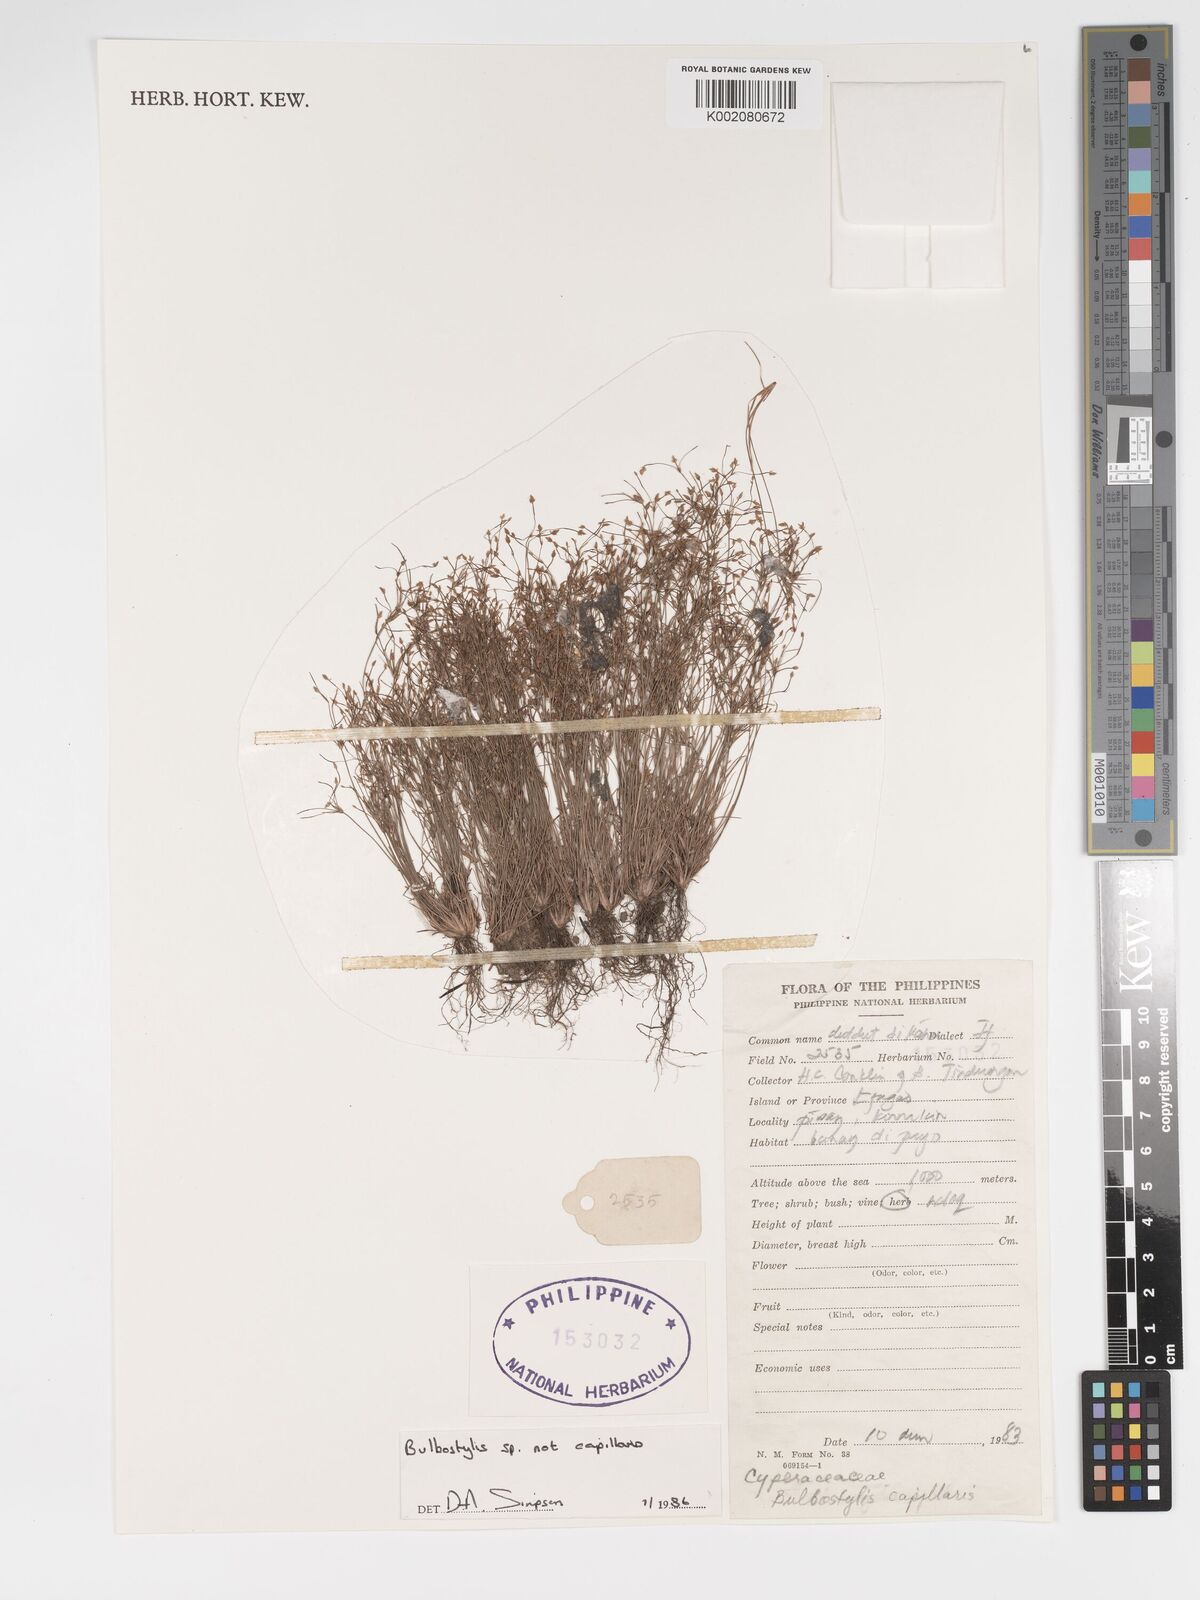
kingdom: Plantae
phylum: Tracheophyta
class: Magnoliopsida
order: Asterales
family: Asteraceae
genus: Bulbostylis
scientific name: Bulbostylis
